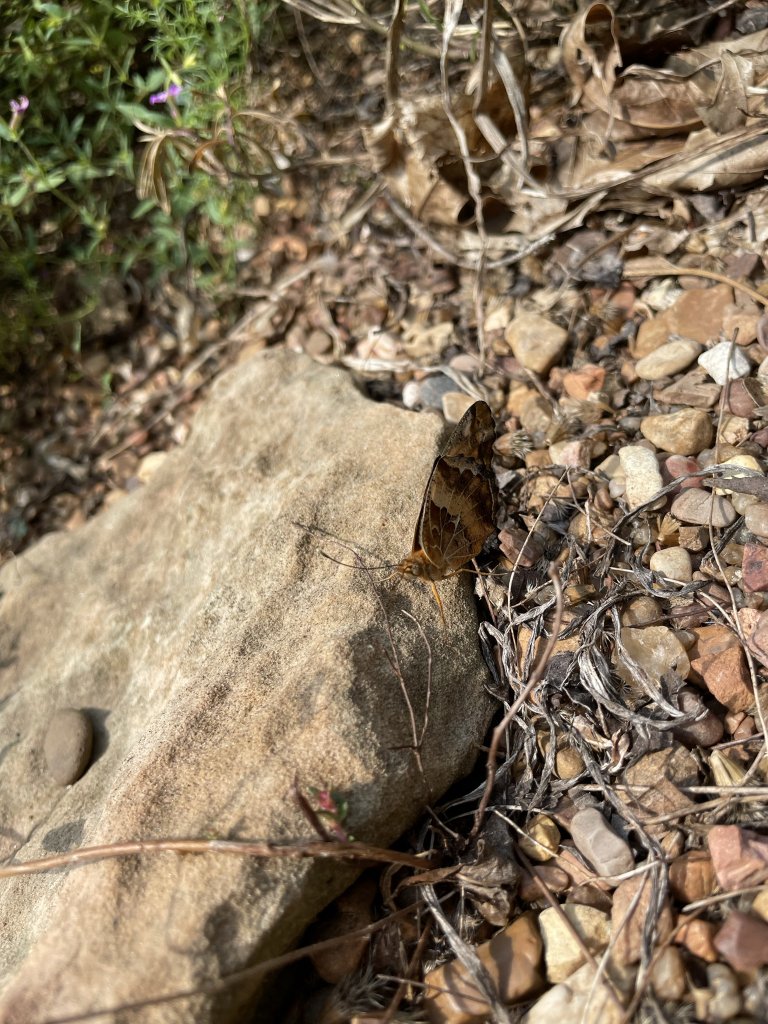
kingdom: Animalia
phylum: Arthropoda
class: Insecta
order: Lepidoptera
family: Nymphalidae
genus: Euptoieta
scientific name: Euptoieta claudia
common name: Variegated Fritillary
